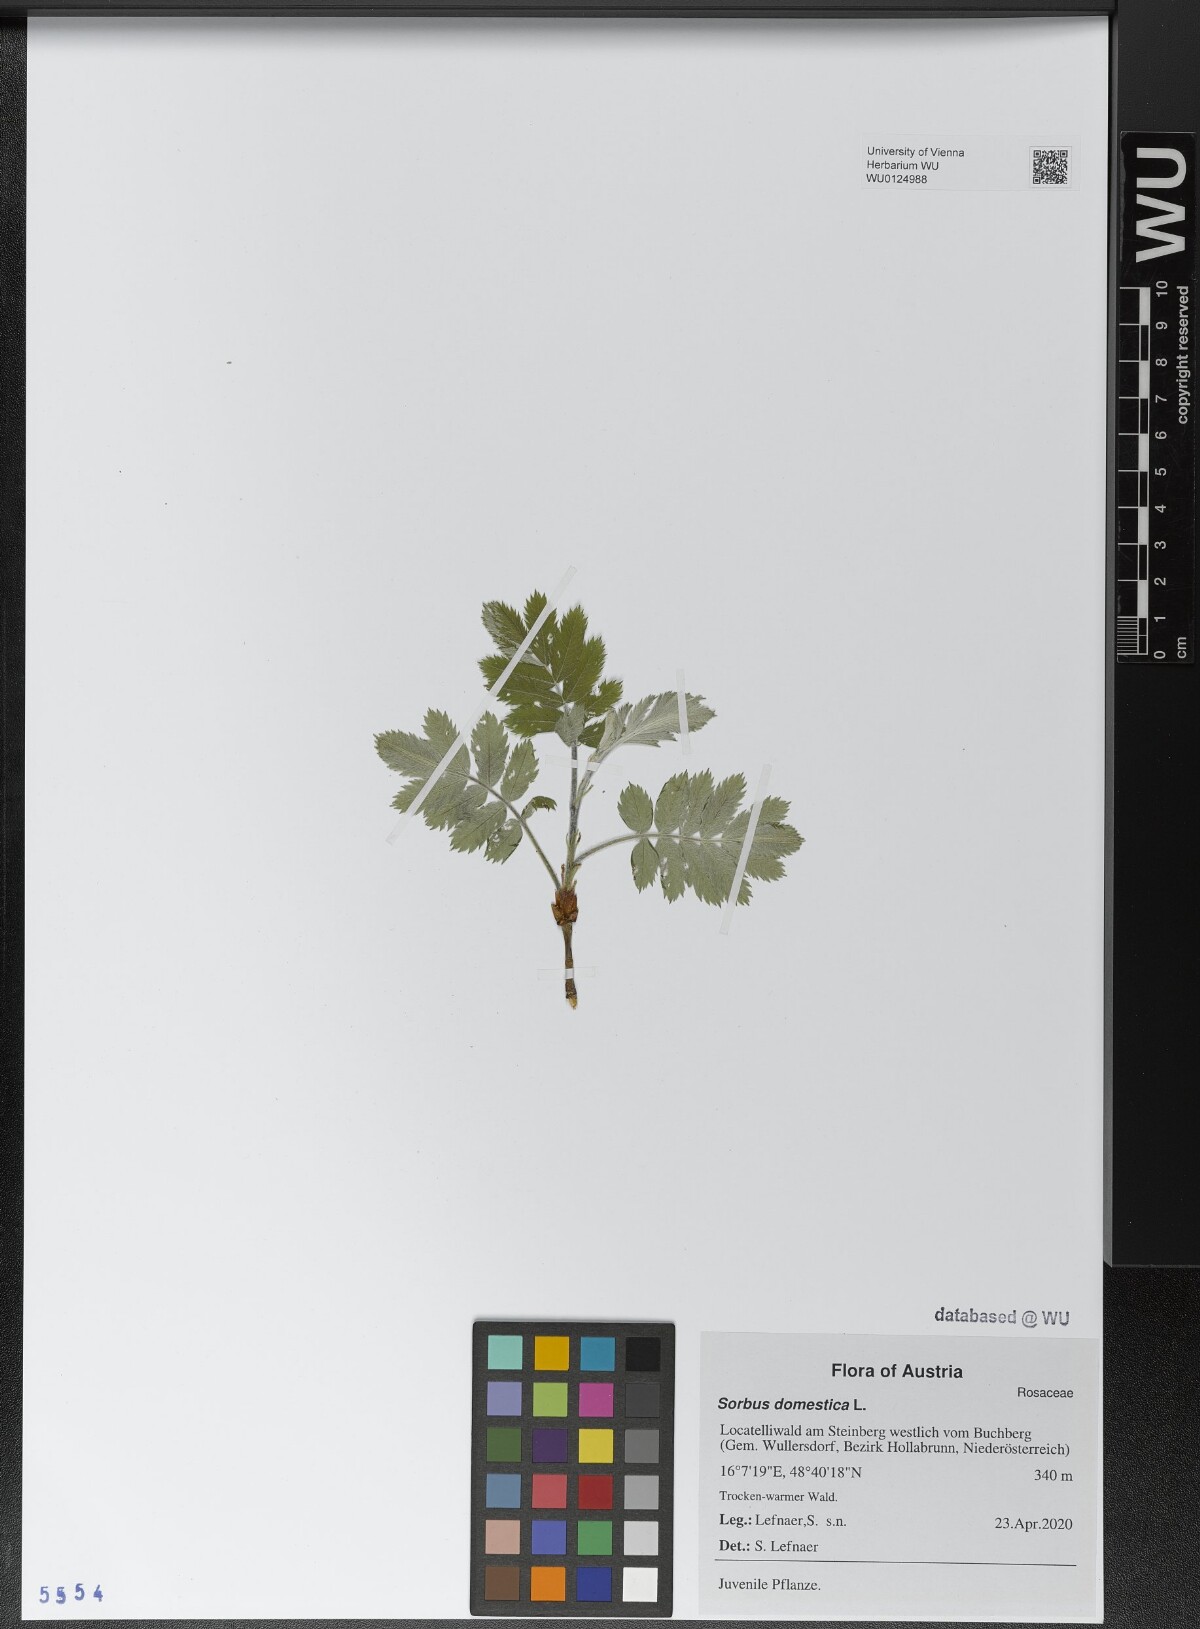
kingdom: Plantae
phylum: Tracheophyta
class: Magnoliopsida
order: Rosales
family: Rosaceae
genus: Cormus
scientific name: Cormus domestica
